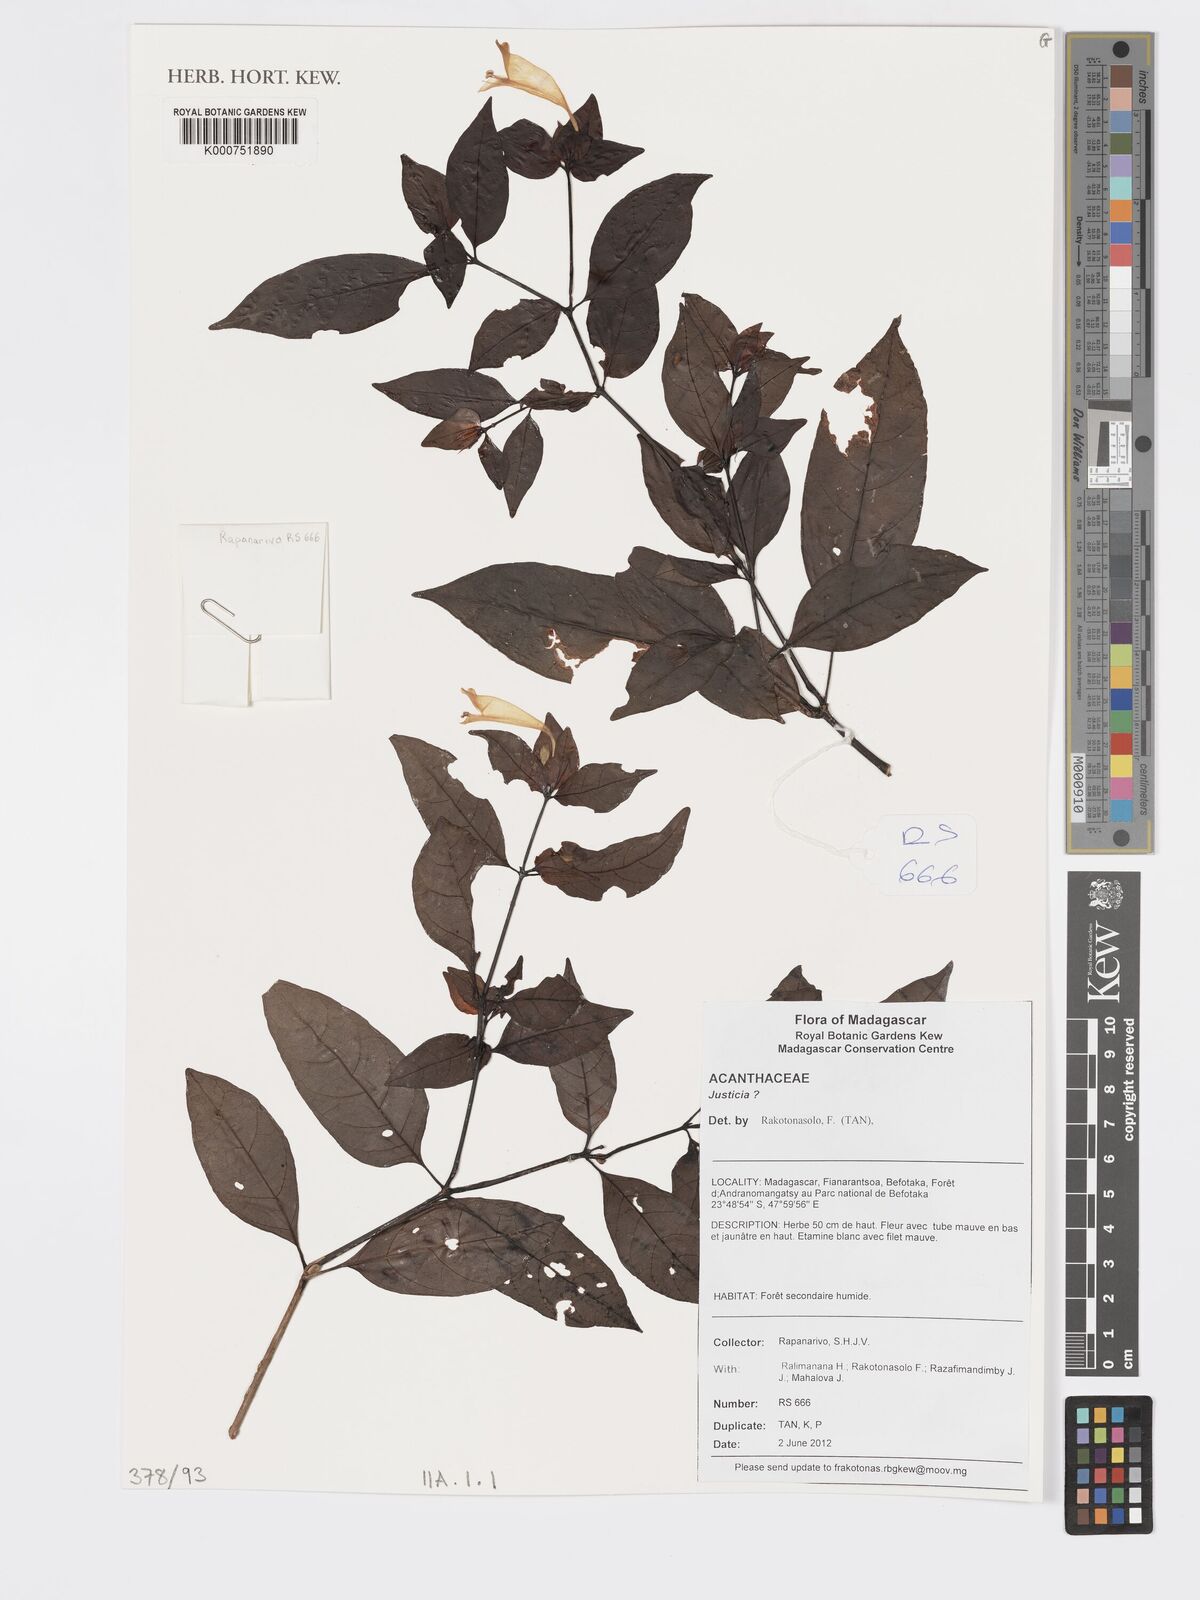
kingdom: Plantae
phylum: Tracheophyta
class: Magnoliopsida
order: Lamiales
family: Acanthaceae
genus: Hypoestes
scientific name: Hypoestes
